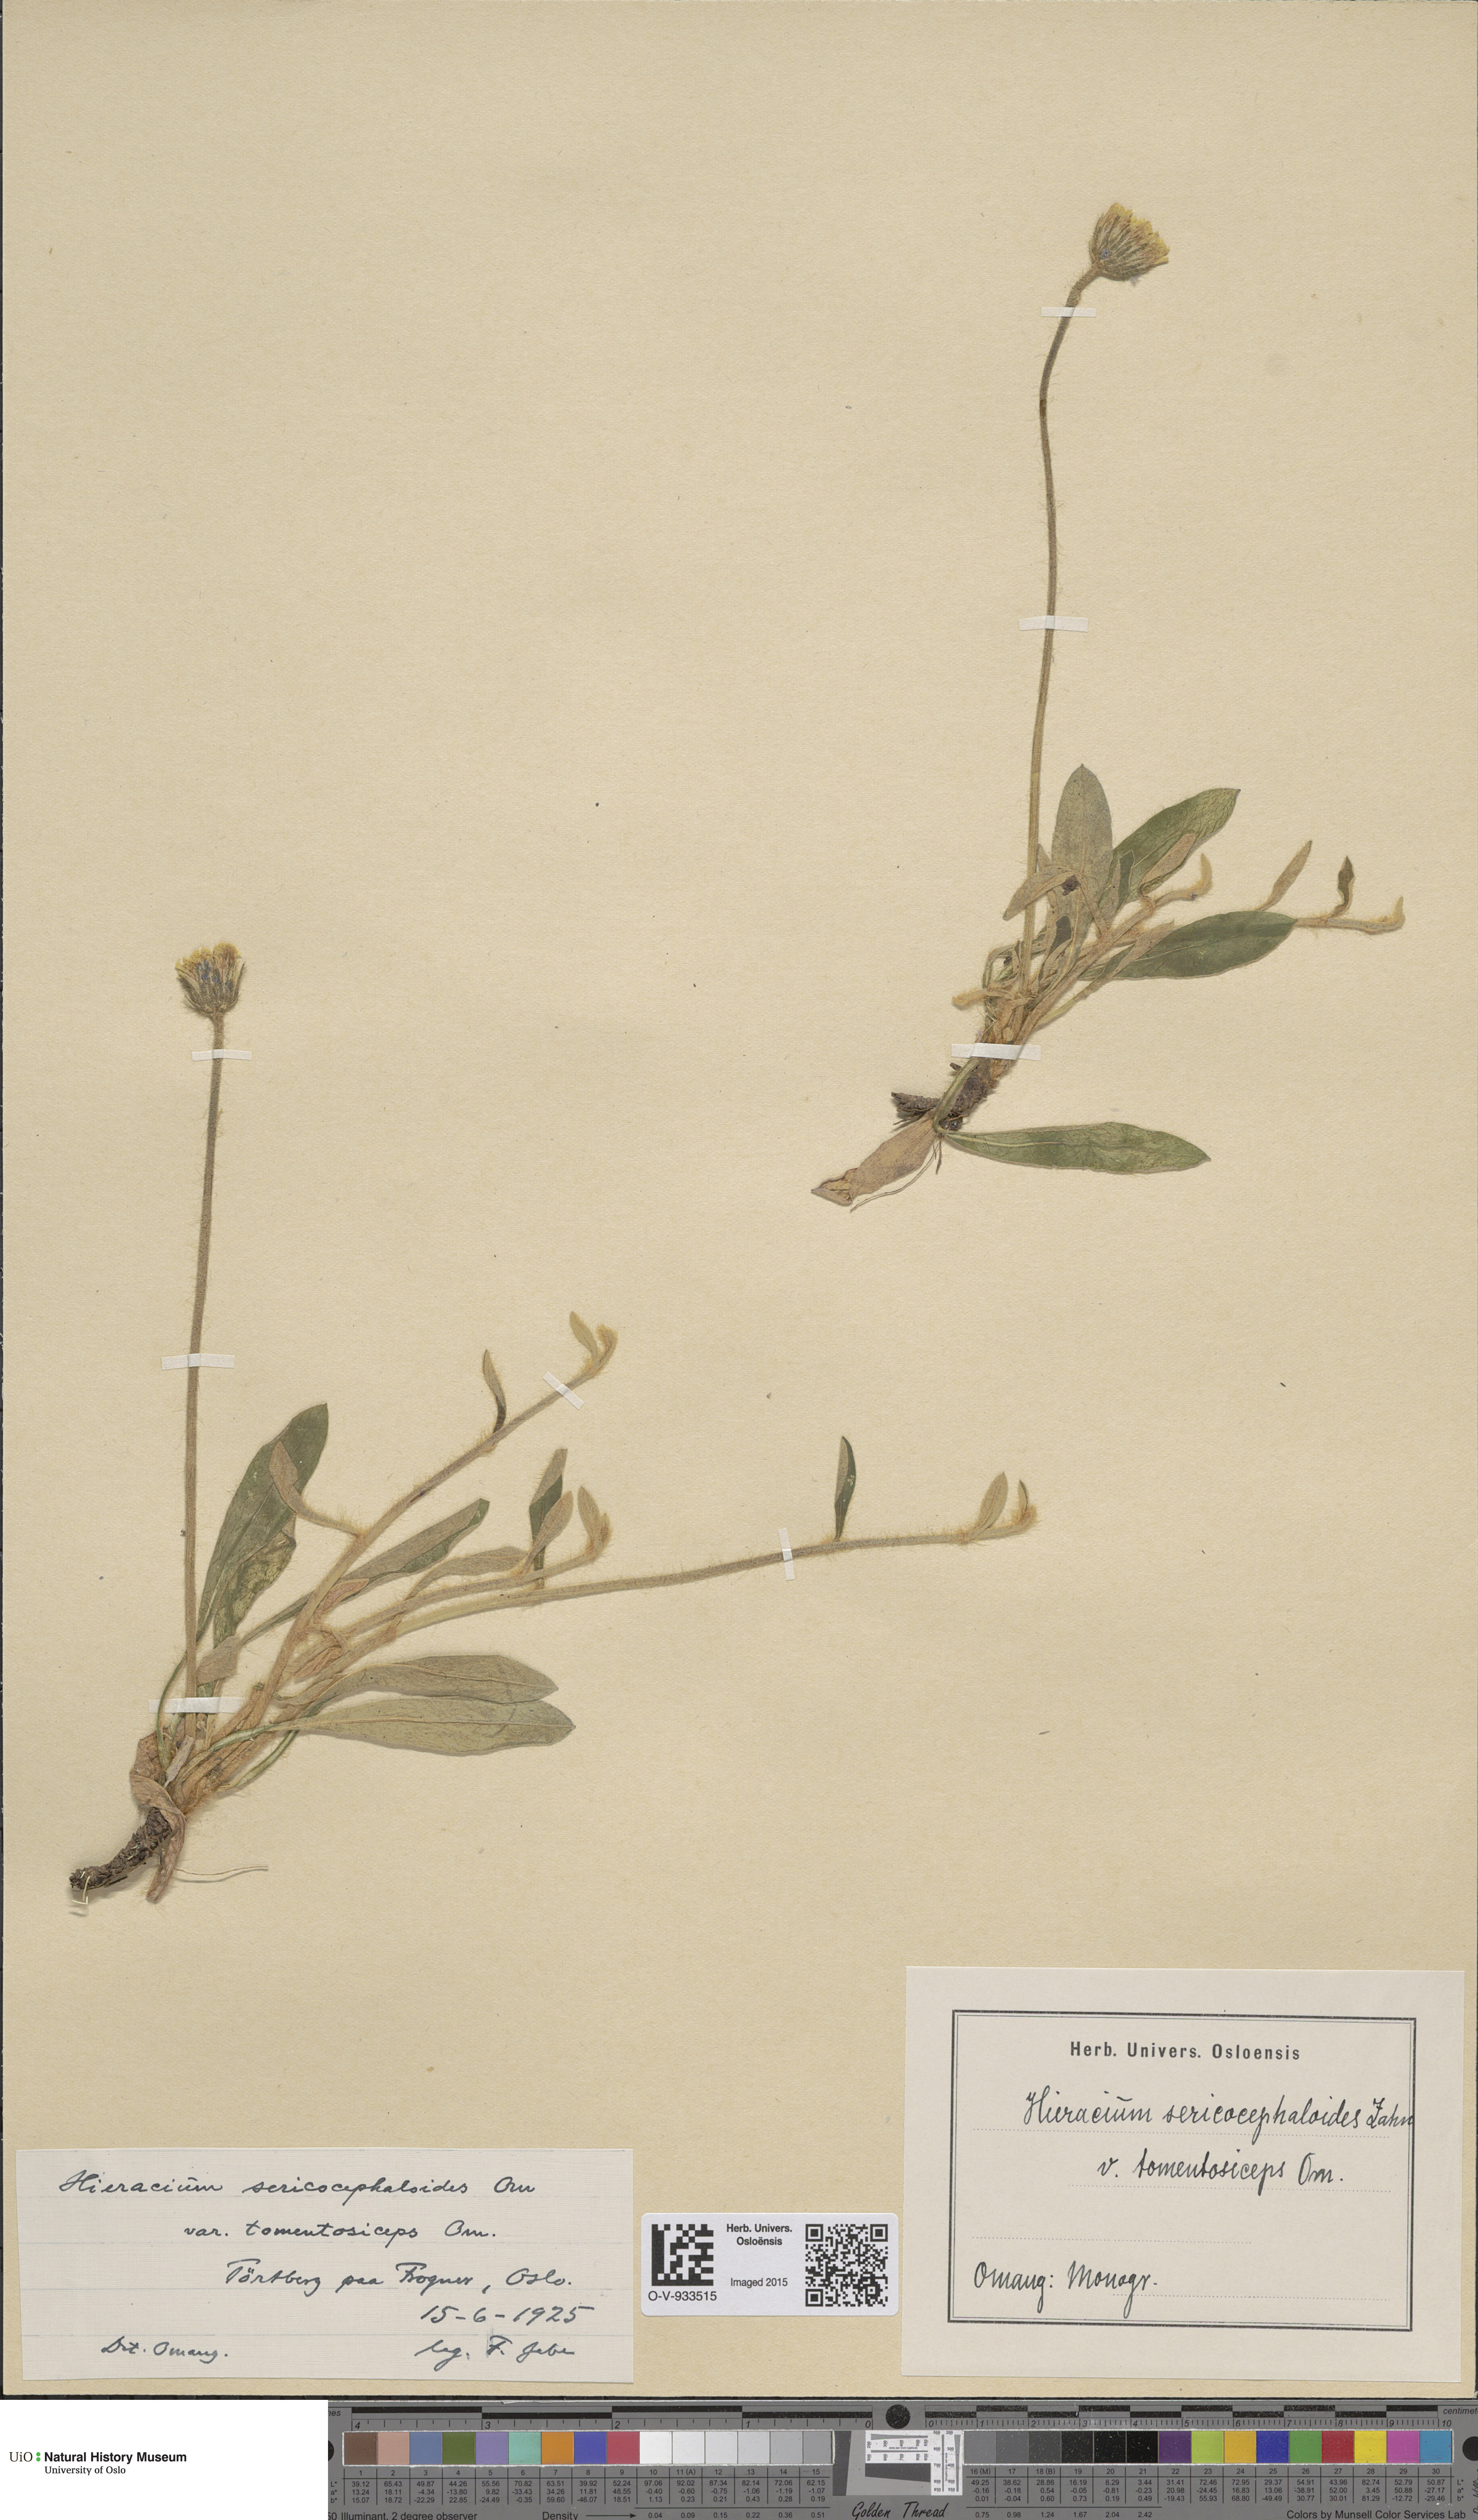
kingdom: Plantae
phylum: Tracheophyta
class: Magnoliopsida
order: Asterales
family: Asteraceae
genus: Pilosella
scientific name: Pilosella officinarum
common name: Mouse-ear hawkweed
